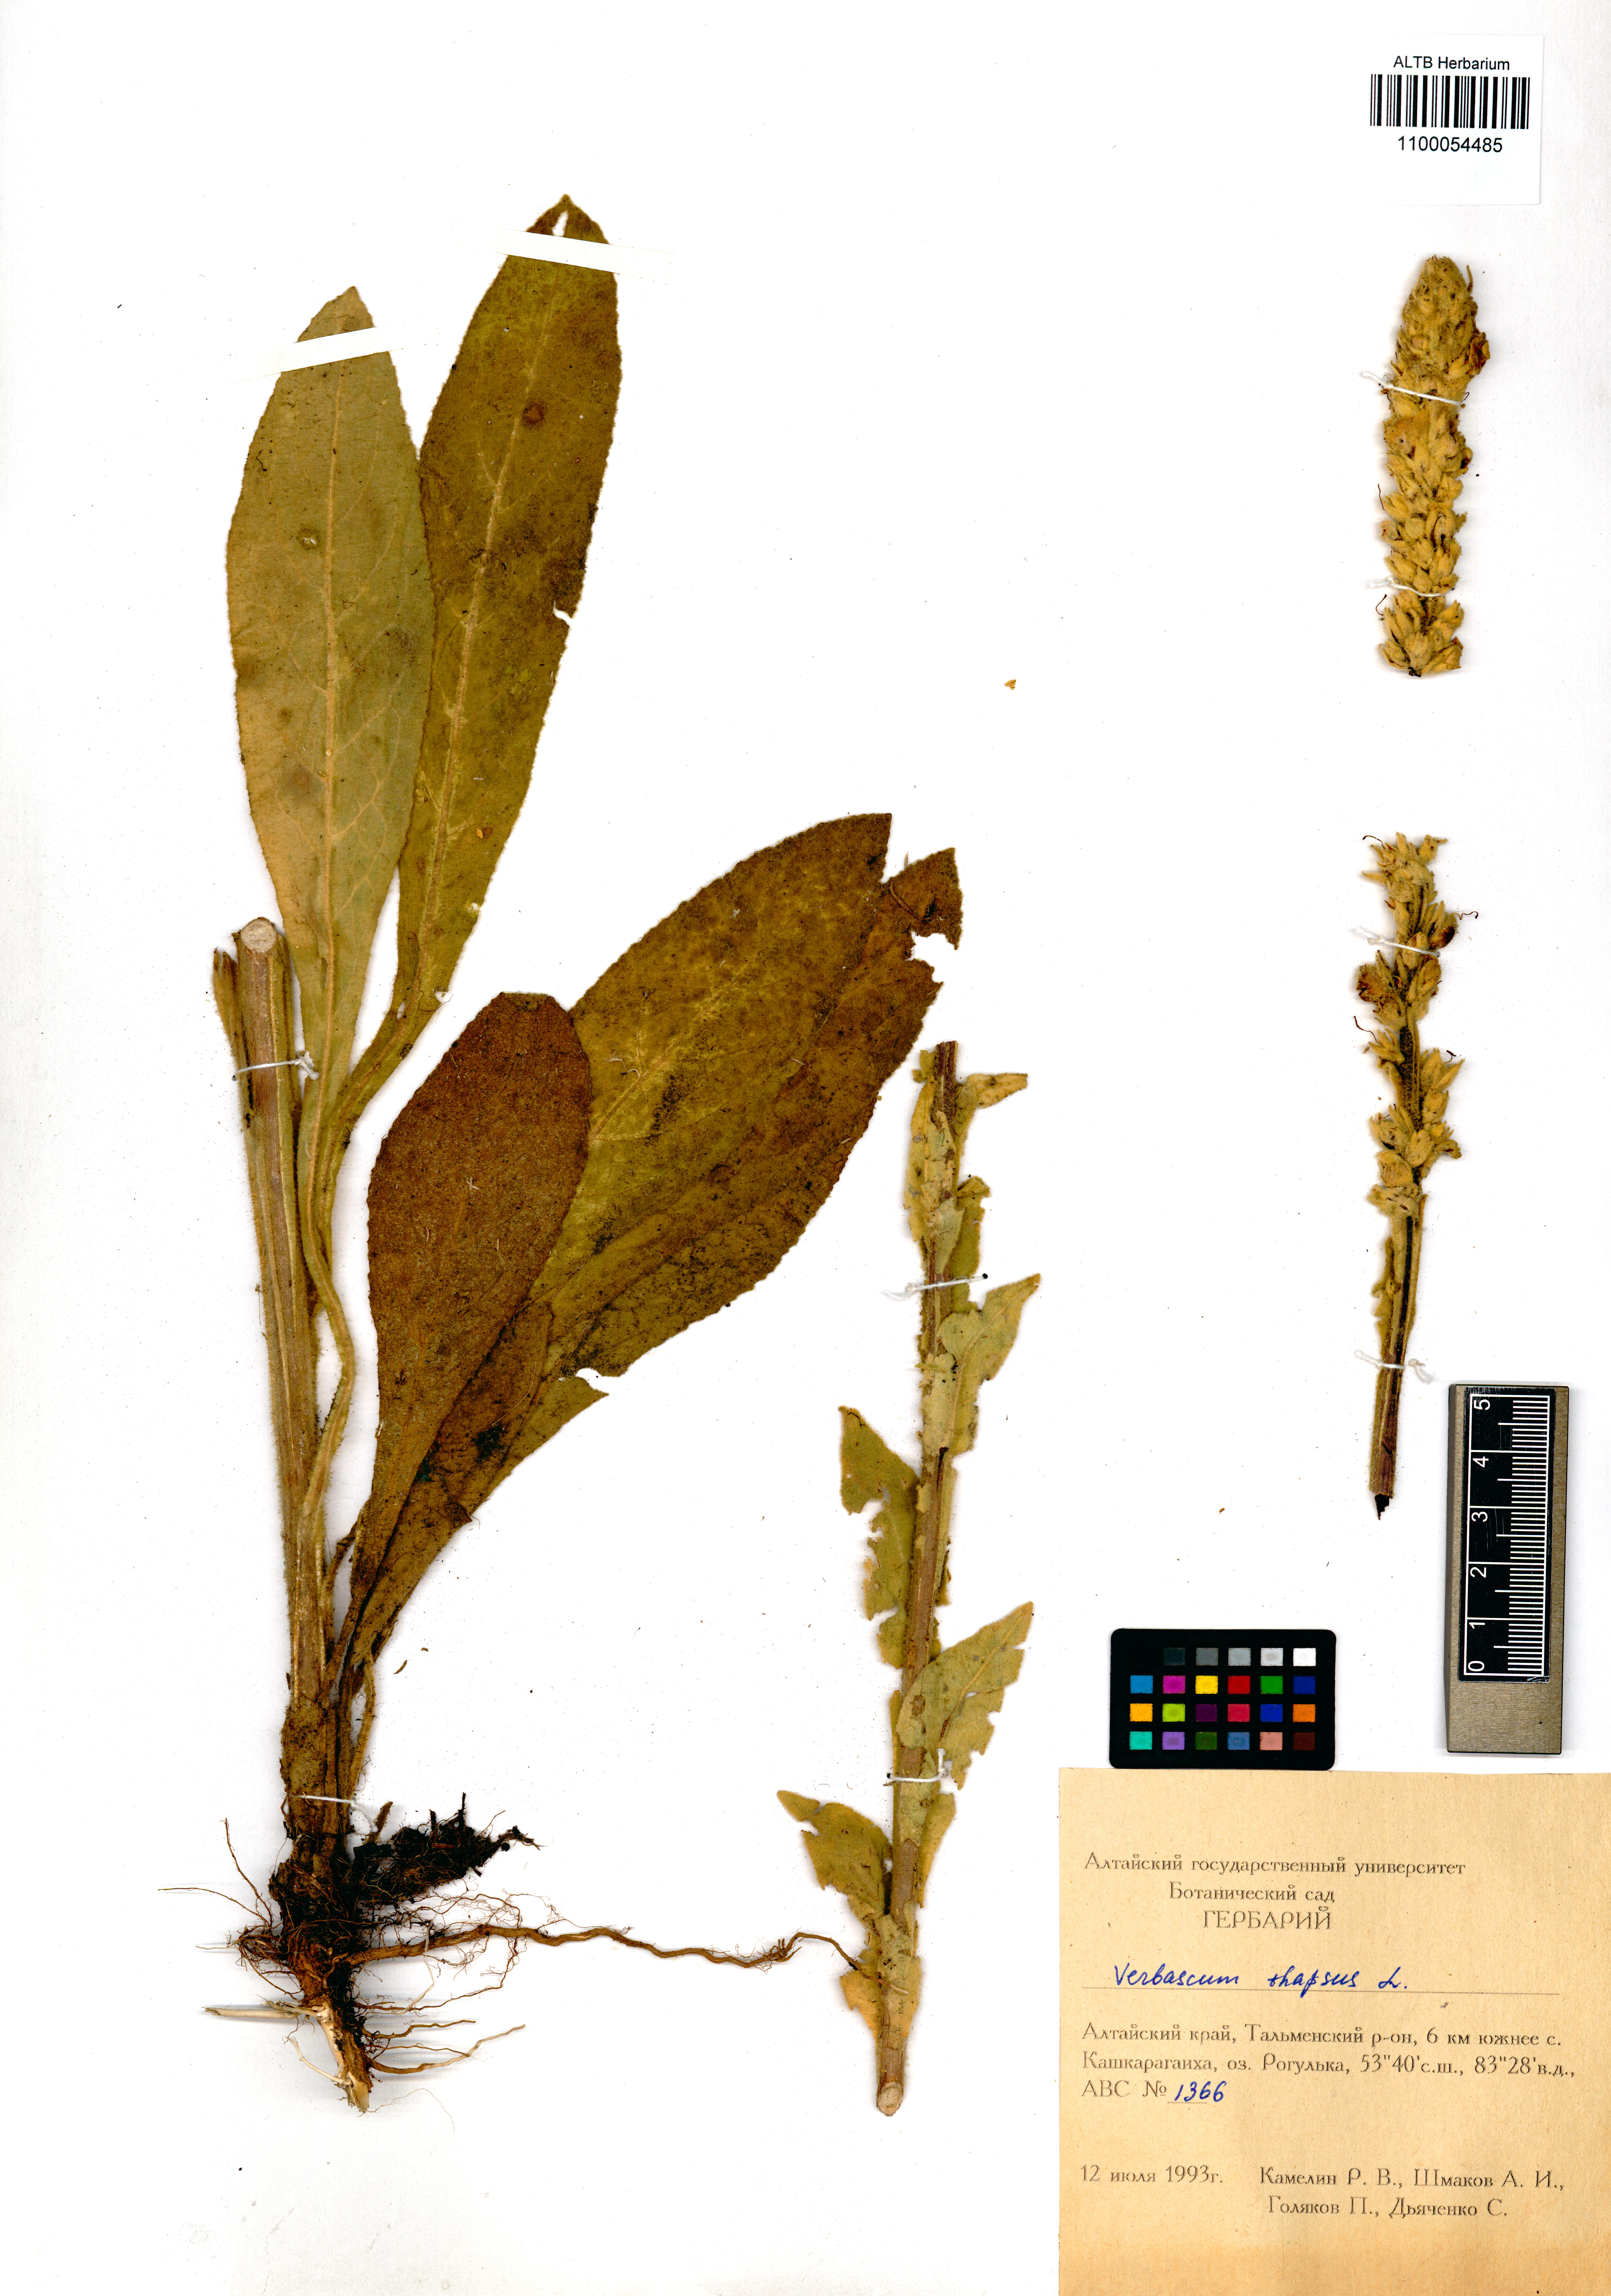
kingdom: Plantae
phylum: Tracheophyta
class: Magnoliopsida
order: Lamiales
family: Scrophulariaceae
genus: Verbascum
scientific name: Verbascum thapsus
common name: Common mullein
